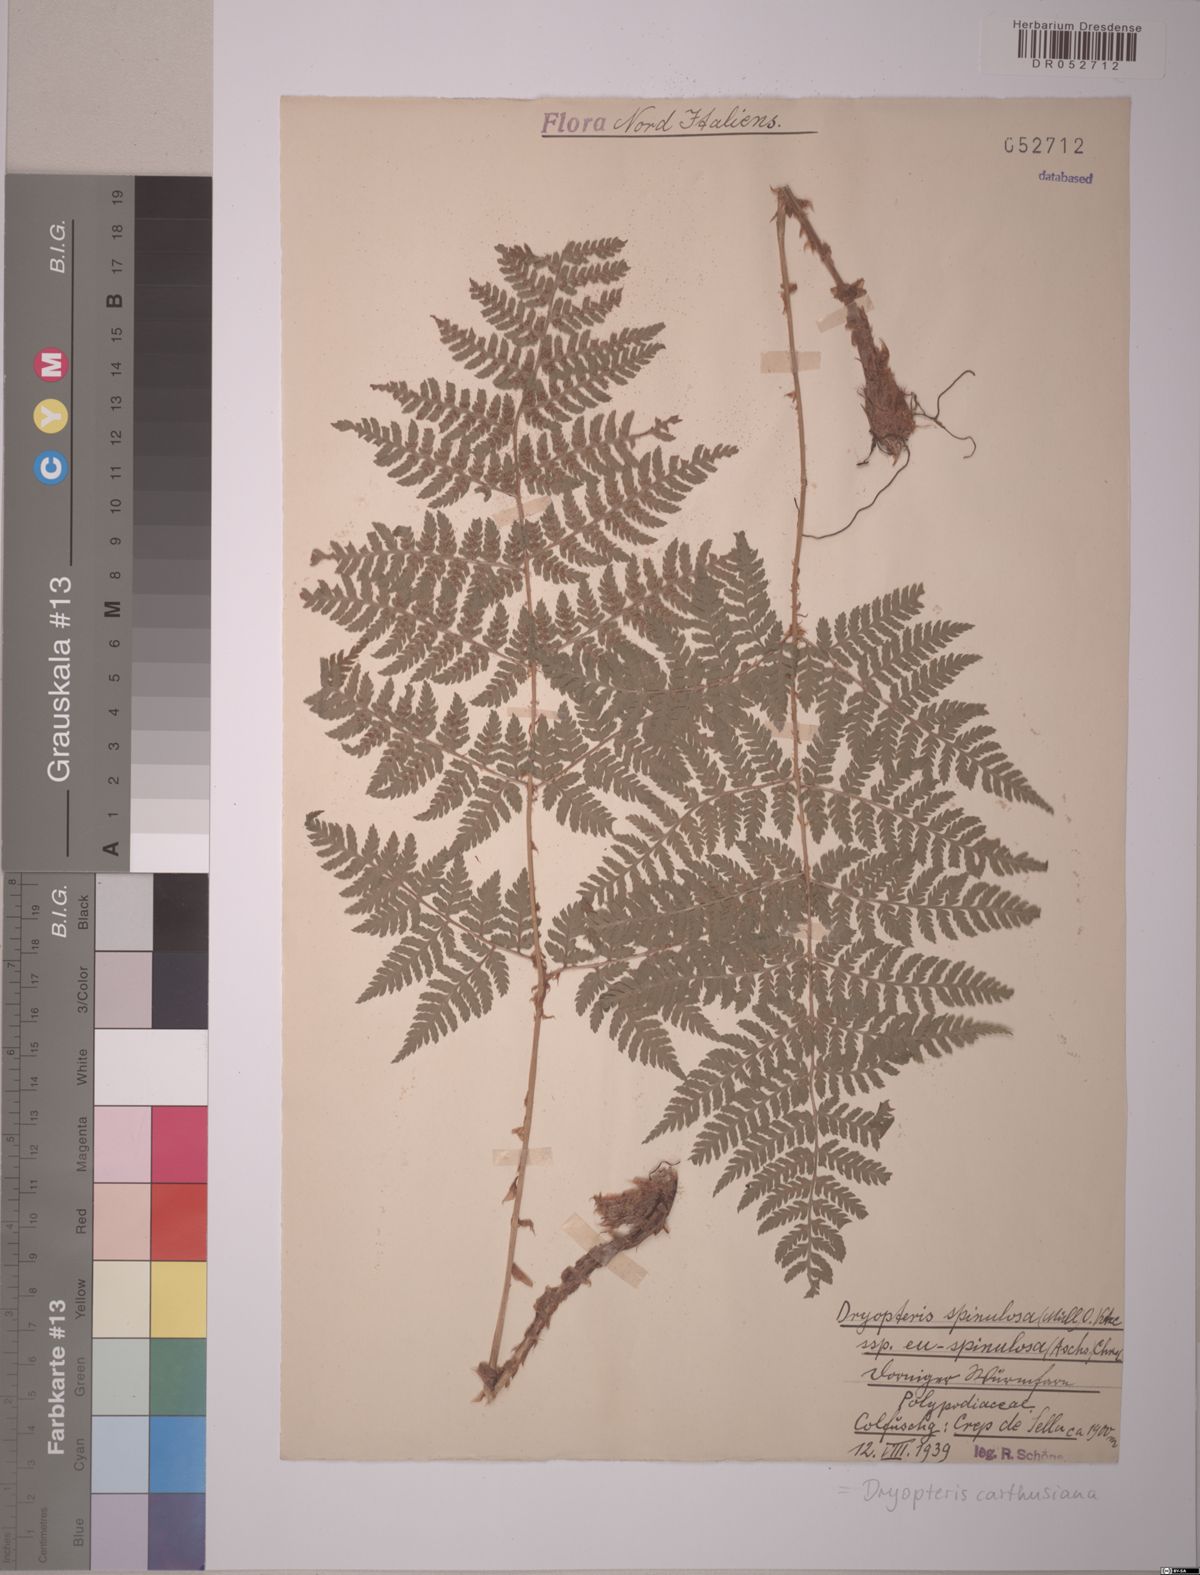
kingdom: Plantae
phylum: Tracheophyta
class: Polypodiopsida
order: Polypodiales
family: Dryopteridaceae
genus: Dryopteris
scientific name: Dryopteris carthusiana
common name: Narrow buckler-fern
